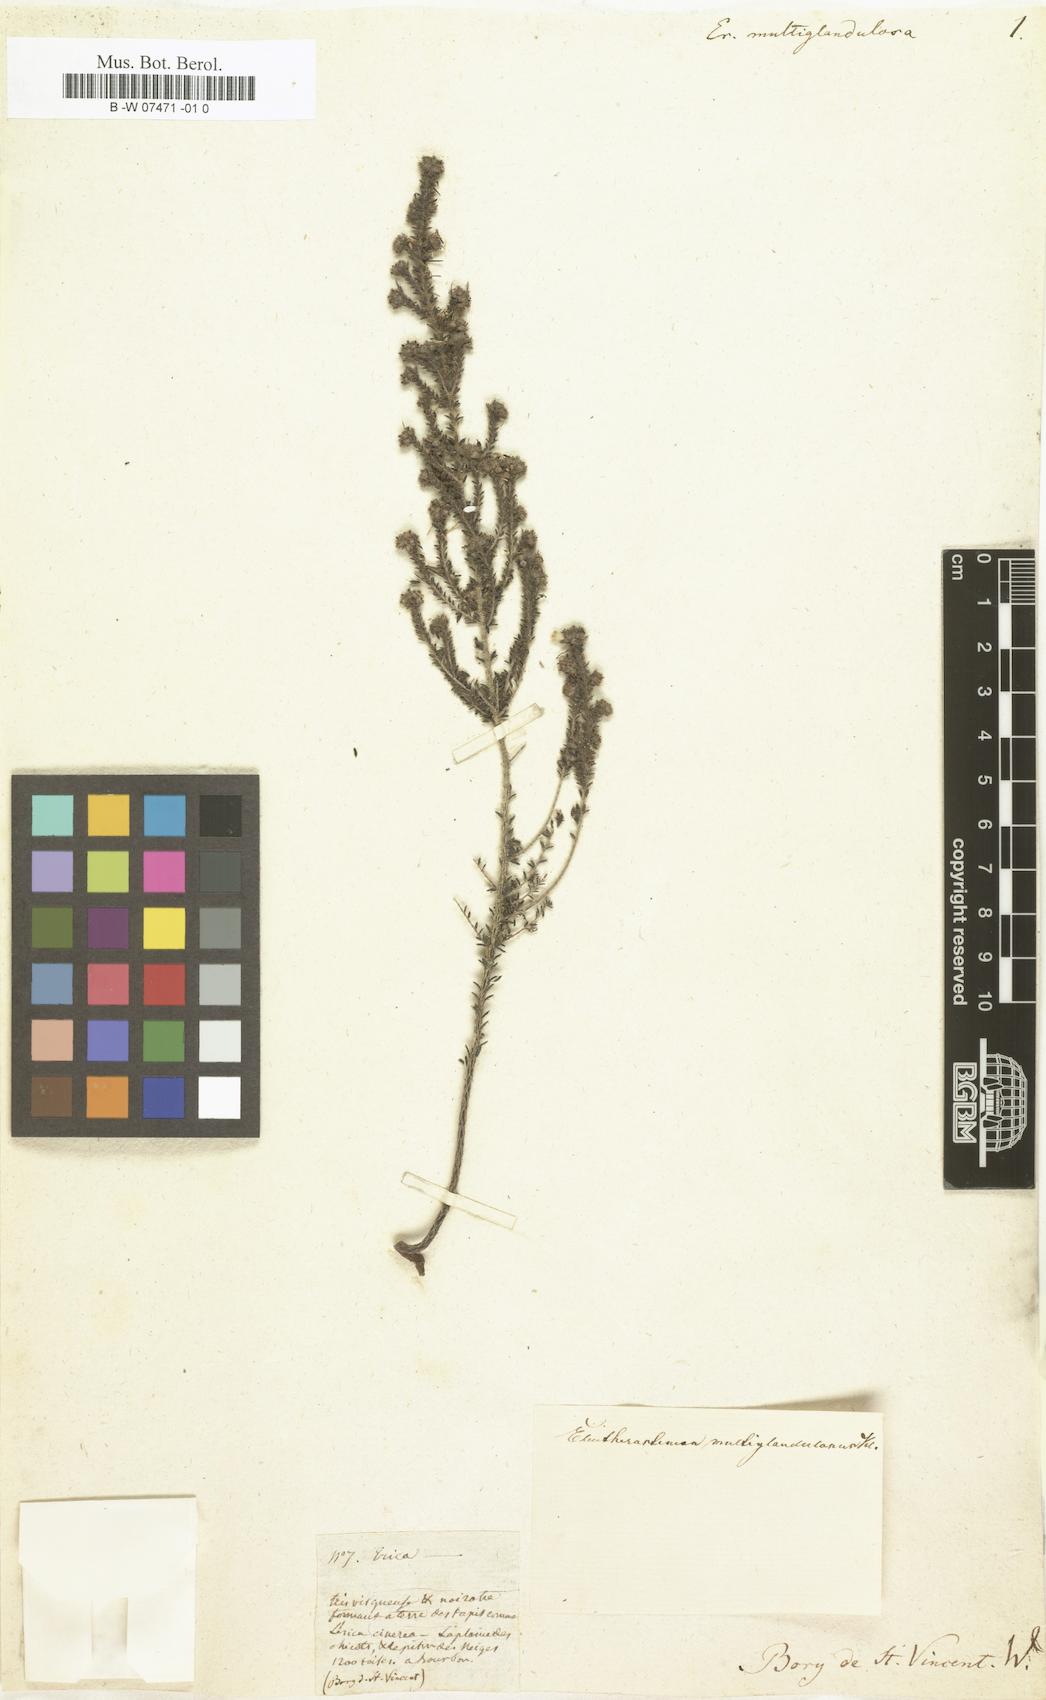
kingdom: Plantae
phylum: Tracheophyta
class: Magnoliopsida
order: Ericales
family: Ericaceae
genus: Erica
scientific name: Erica galioides
